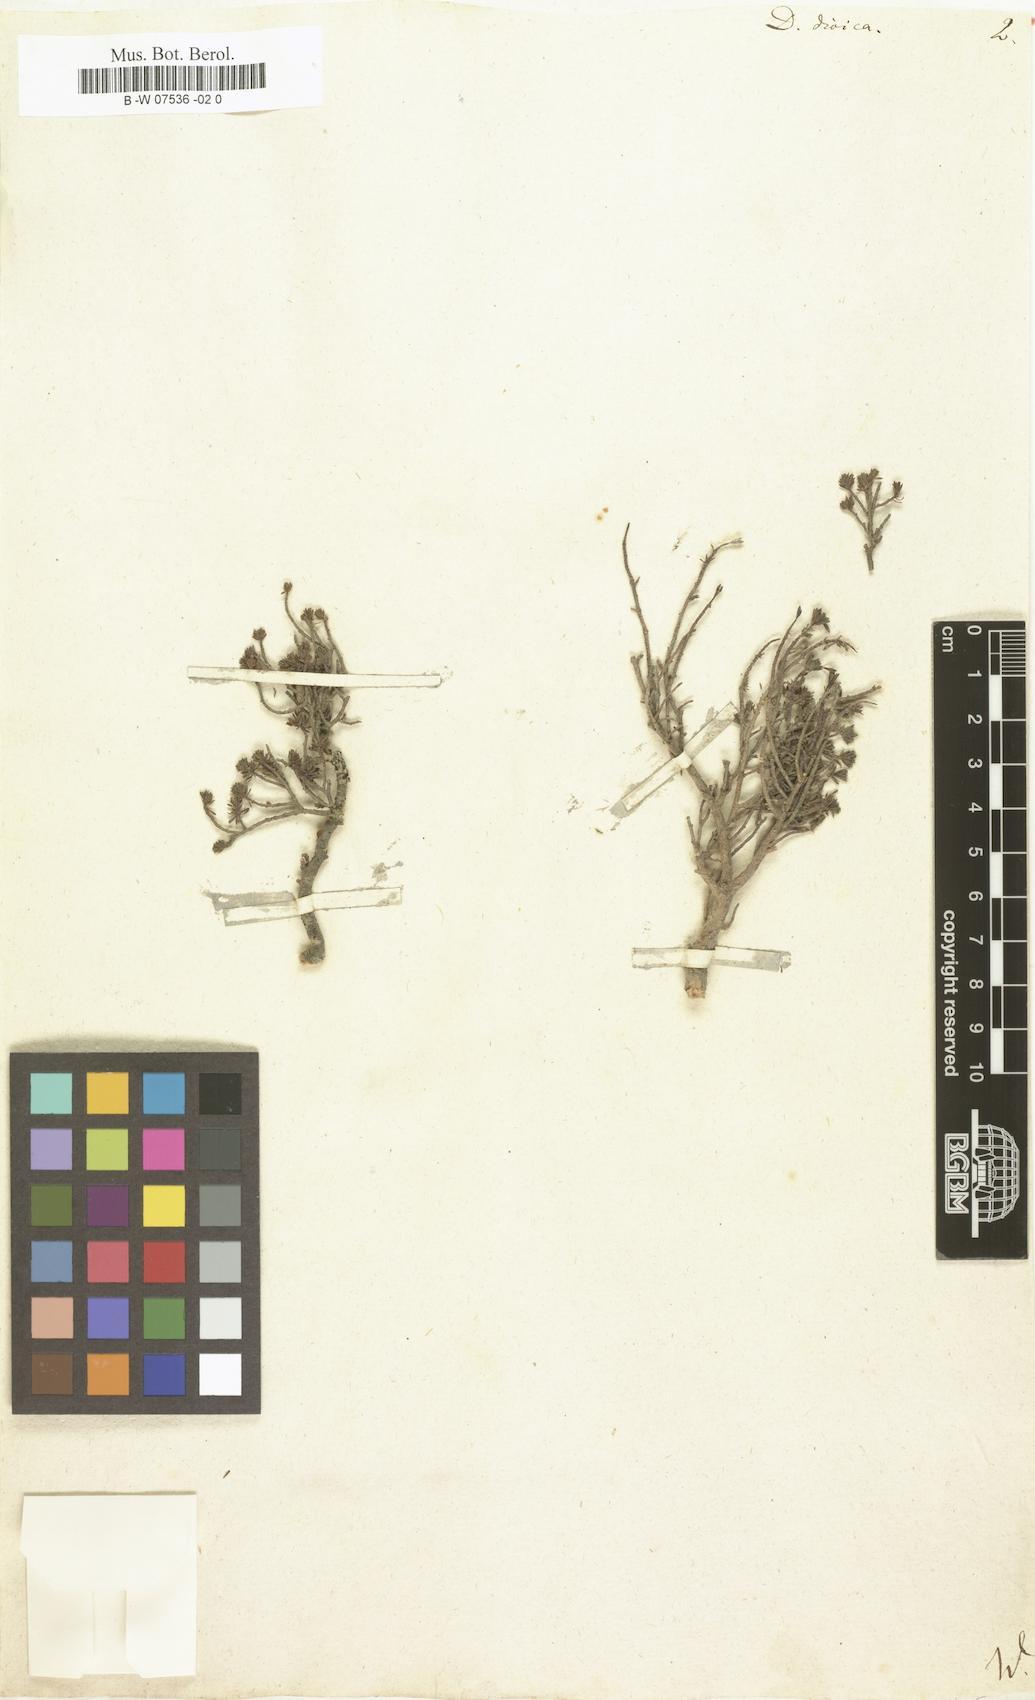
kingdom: Plantae
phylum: Tracheophyta
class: Magnoliopsida
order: Malvales
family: Thymelaeaceae
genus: Thymelaea
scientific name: Thymelaea dioica
